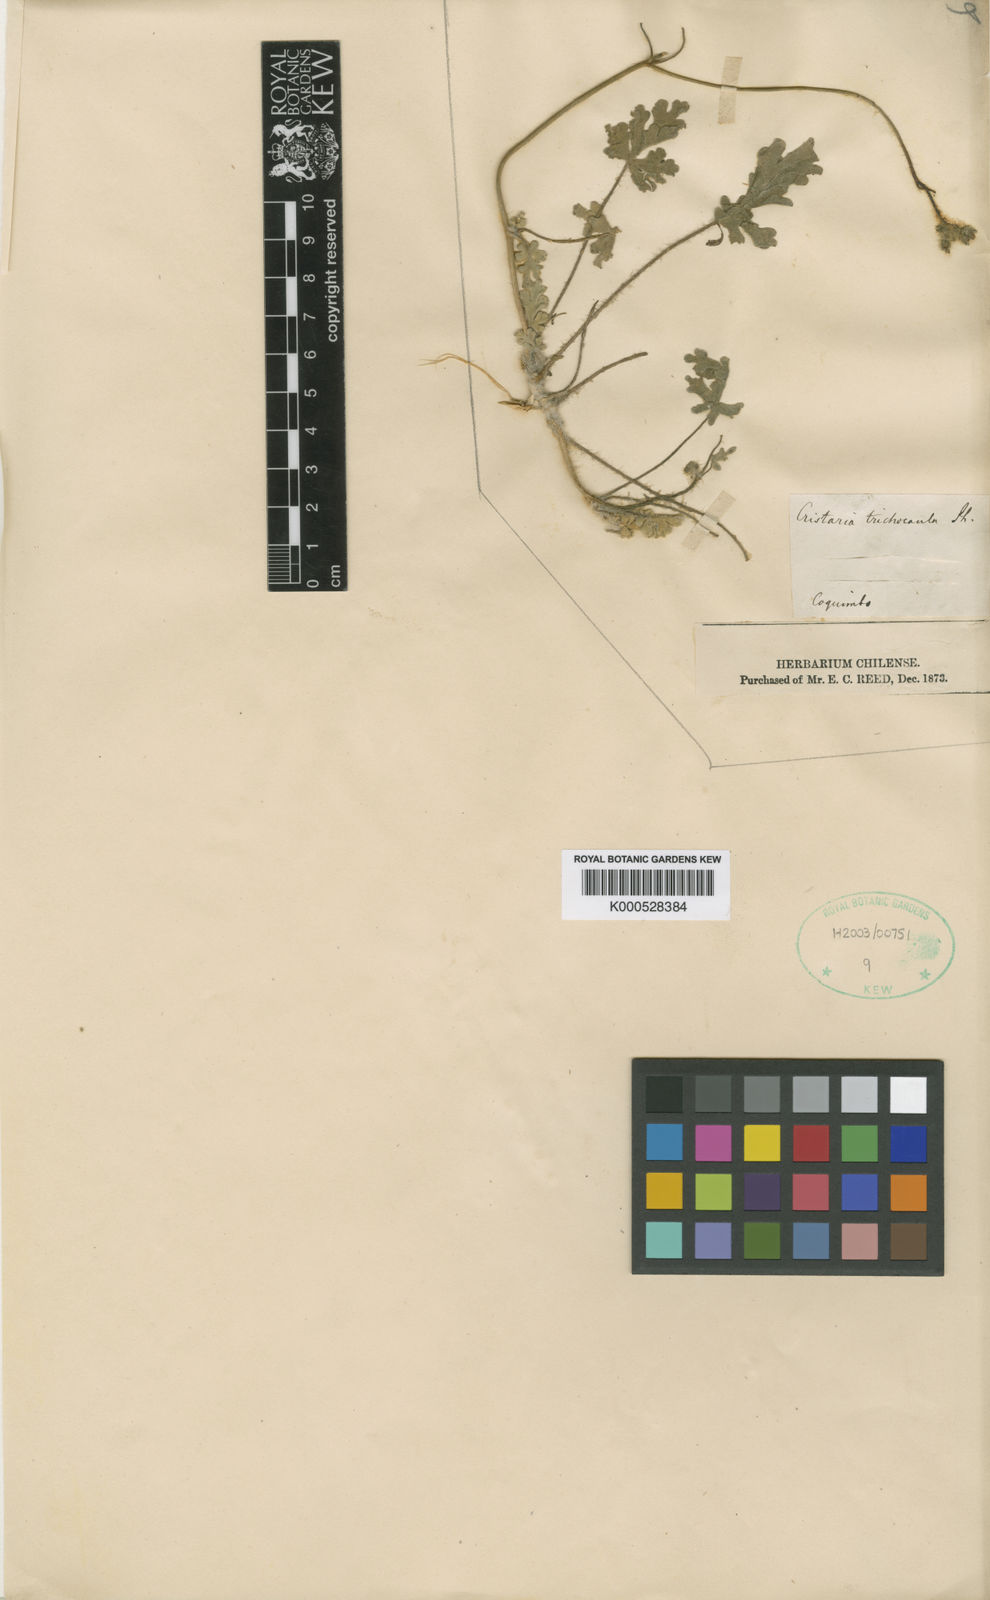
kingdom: Plantae
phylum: Tracheophyta
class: Magnoliopsida
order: Malvales
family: Malvaceae
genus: Cristaria
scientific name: Cristaria glaucophylla
